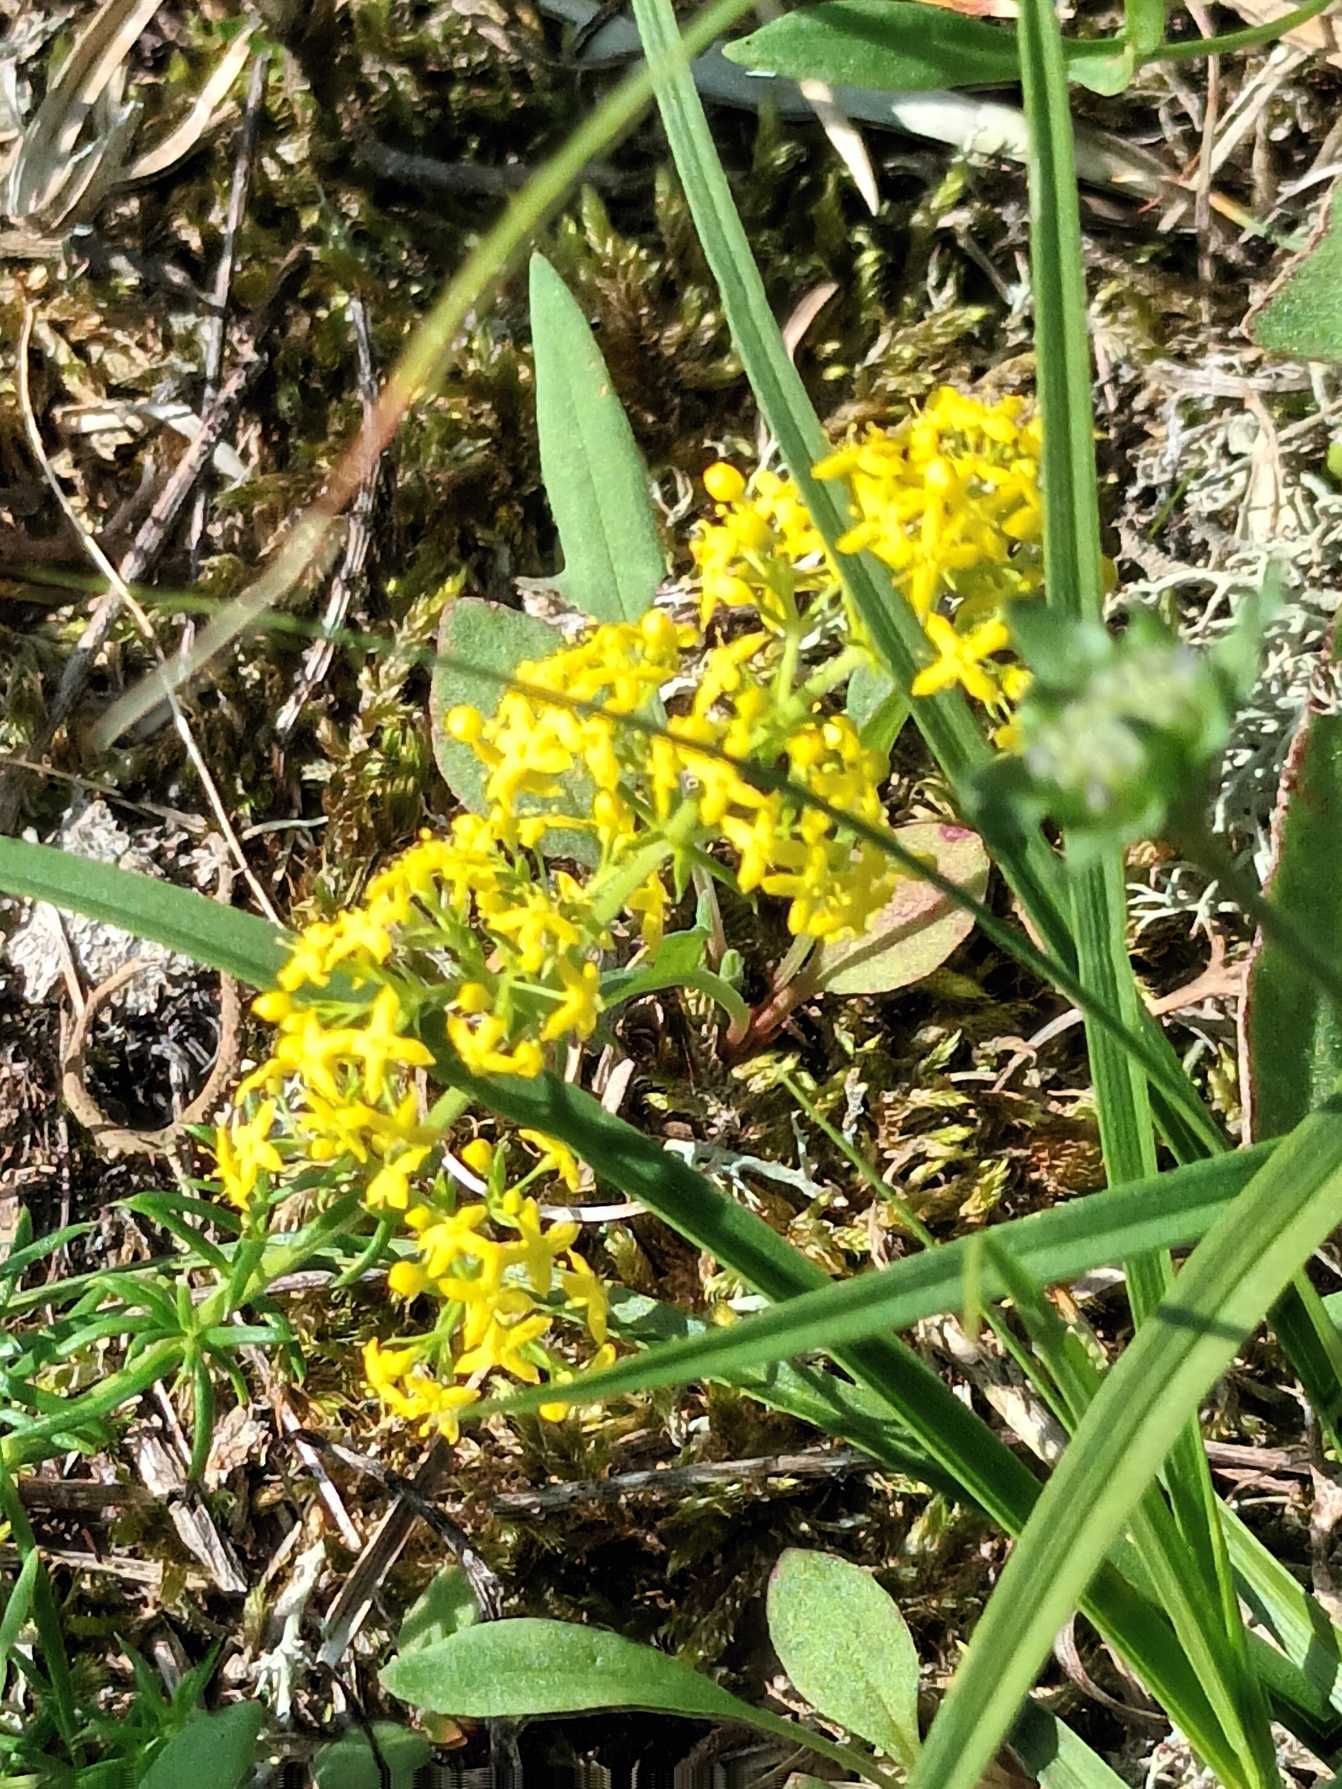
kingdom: Plantae
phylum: Tracheophyta
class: Magnoliopsida
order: Gentianales
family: Rubiaceae
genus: Galium
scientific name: Galium verum
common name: Gul snerre
